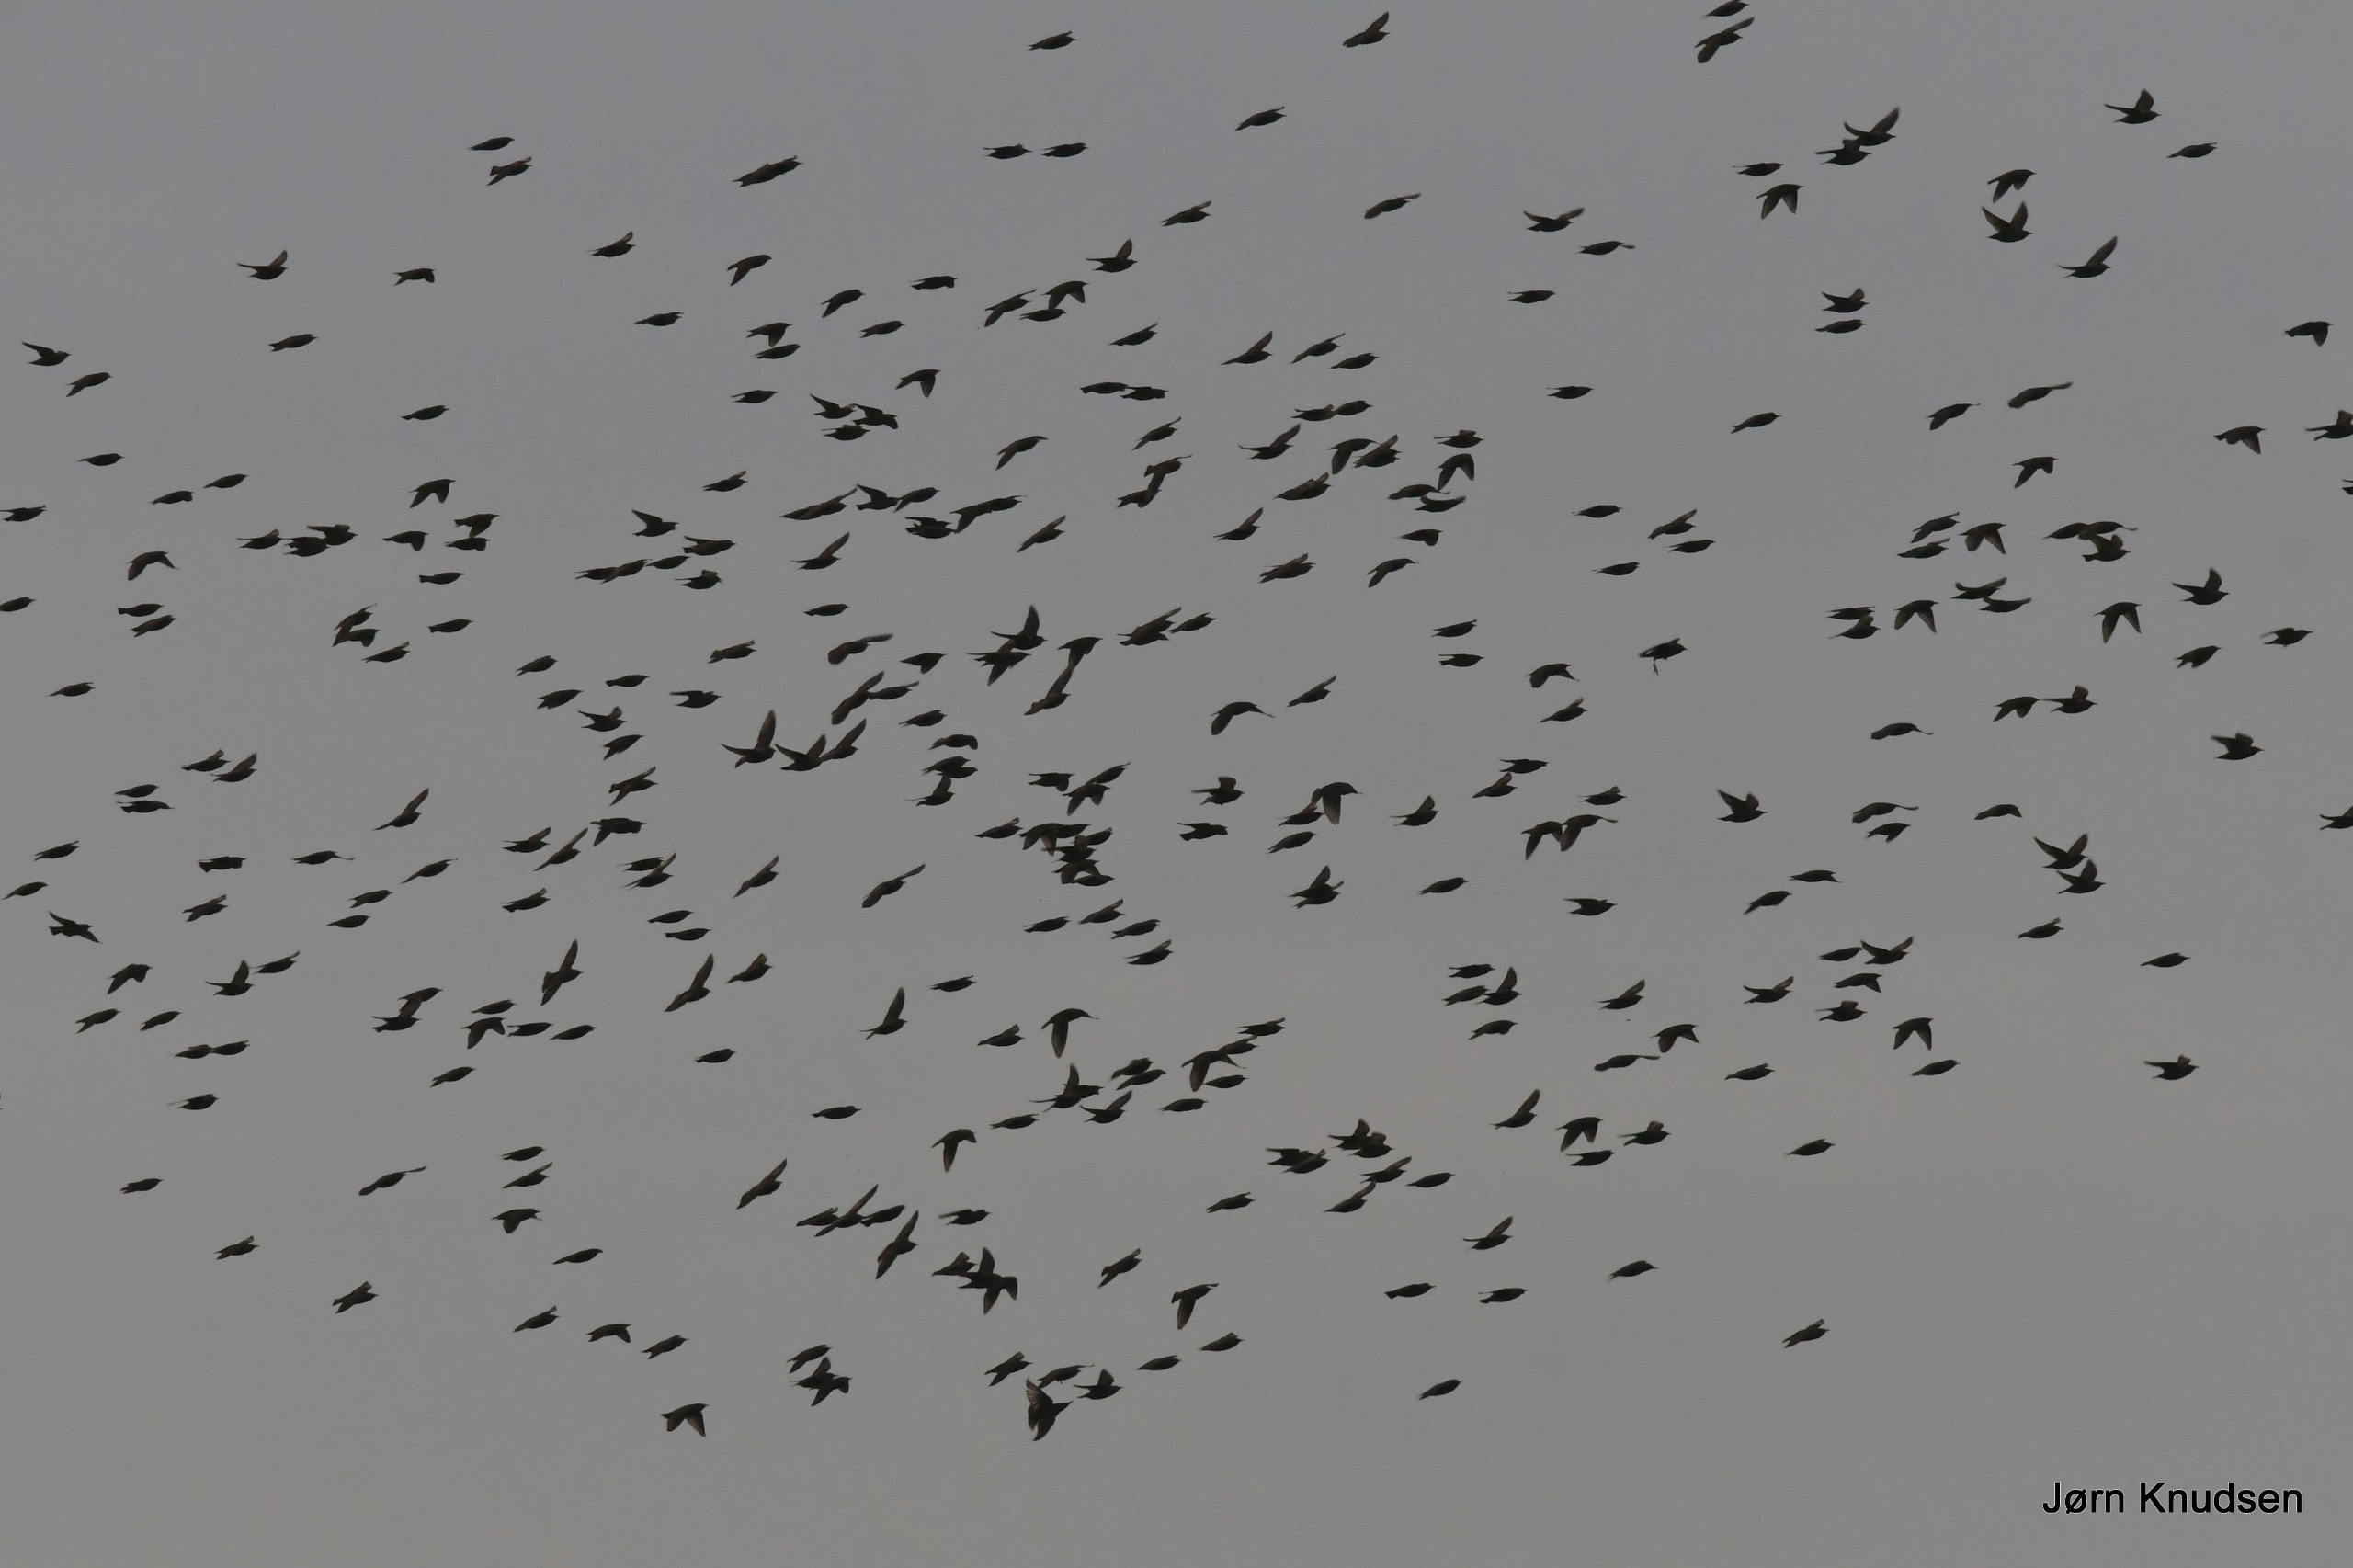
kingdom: Animalia
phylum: Chordata
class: Aves
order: Passeriformes
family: Sturnidae
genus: Sturnus
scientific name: Sturnus vulgaris
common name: Stær
